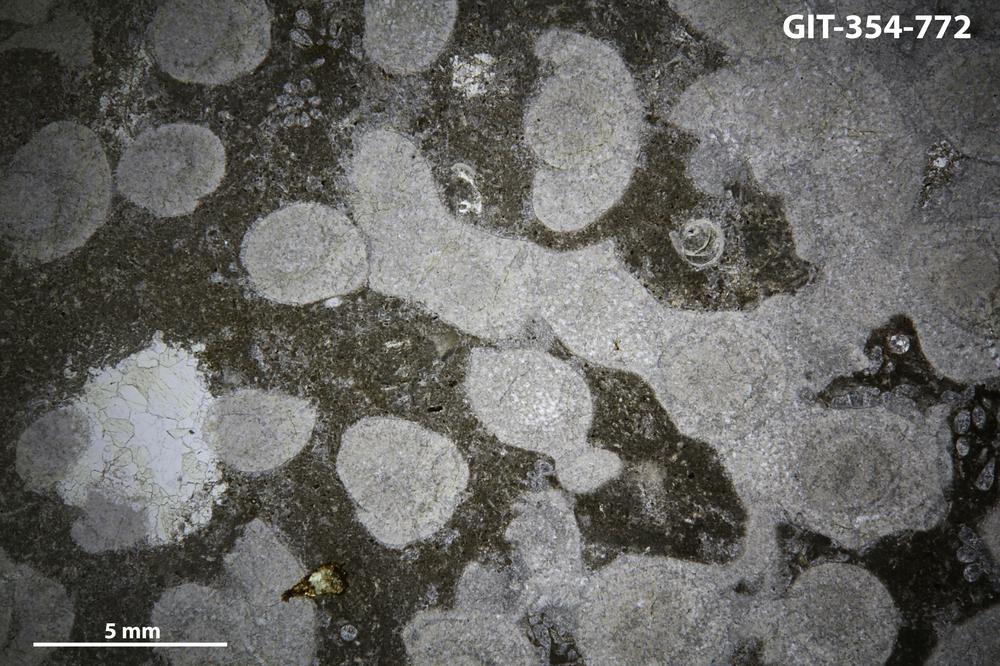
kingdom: Animalia
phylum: Nemertea
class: Hoplonemertea
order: Monostilifera
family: Amphiporidae
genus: Clathrodictyella
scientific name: Clathrodictyella
